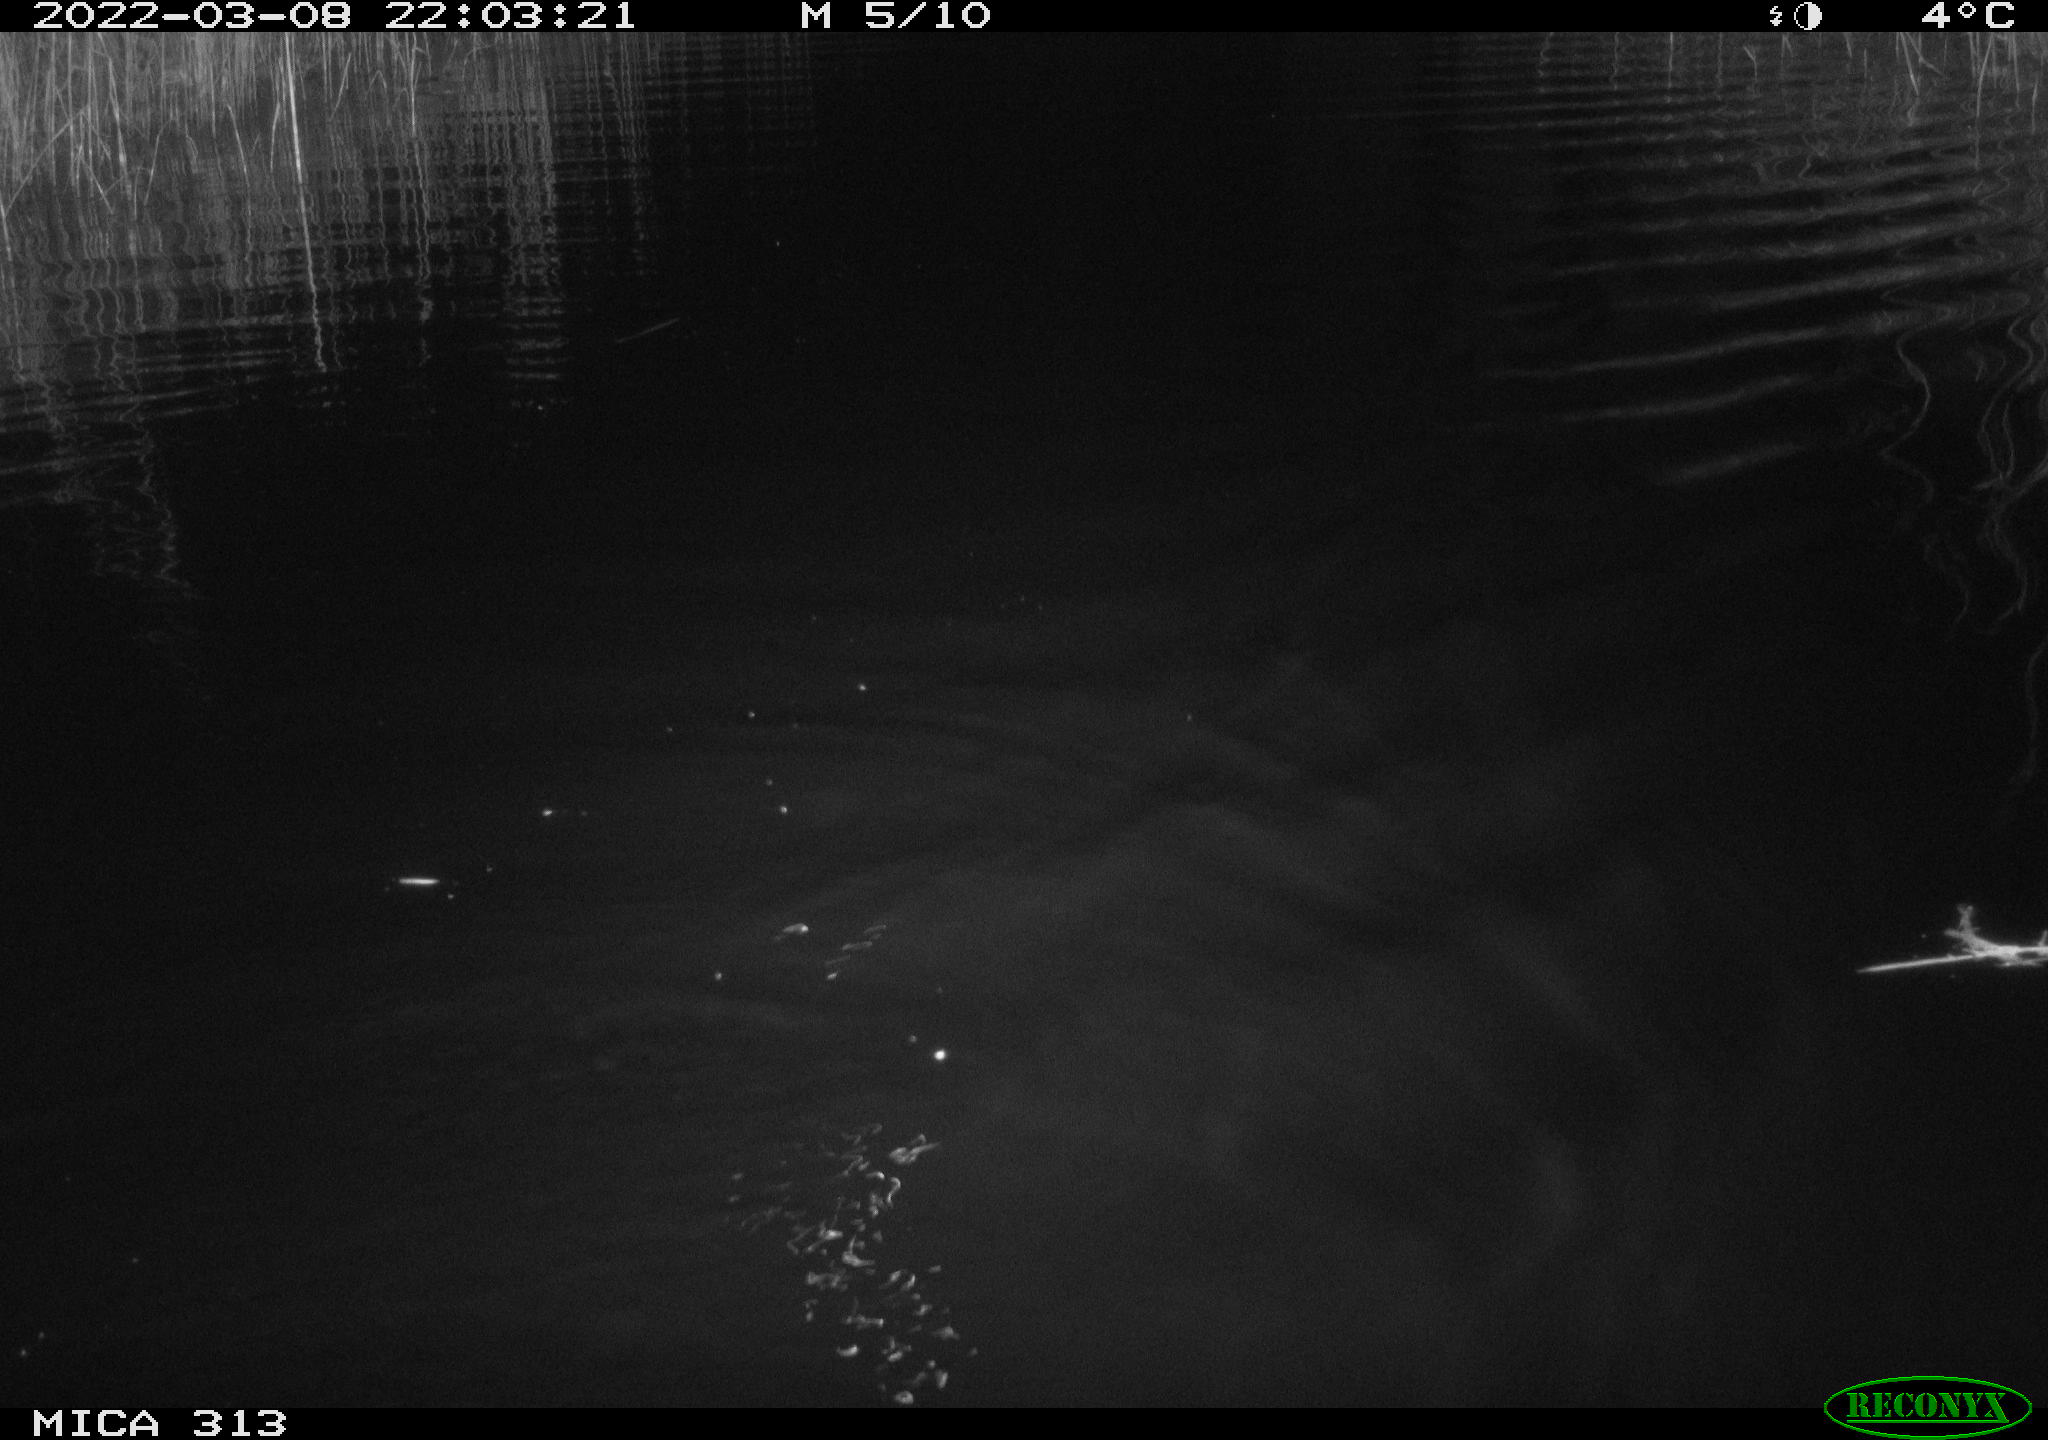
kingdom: Animalia
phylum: Chordata
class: Mammalia
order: Rodentia
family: Cricetidae
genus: Ondatra
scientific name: Ondatra zibethicus
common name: Muskrat
